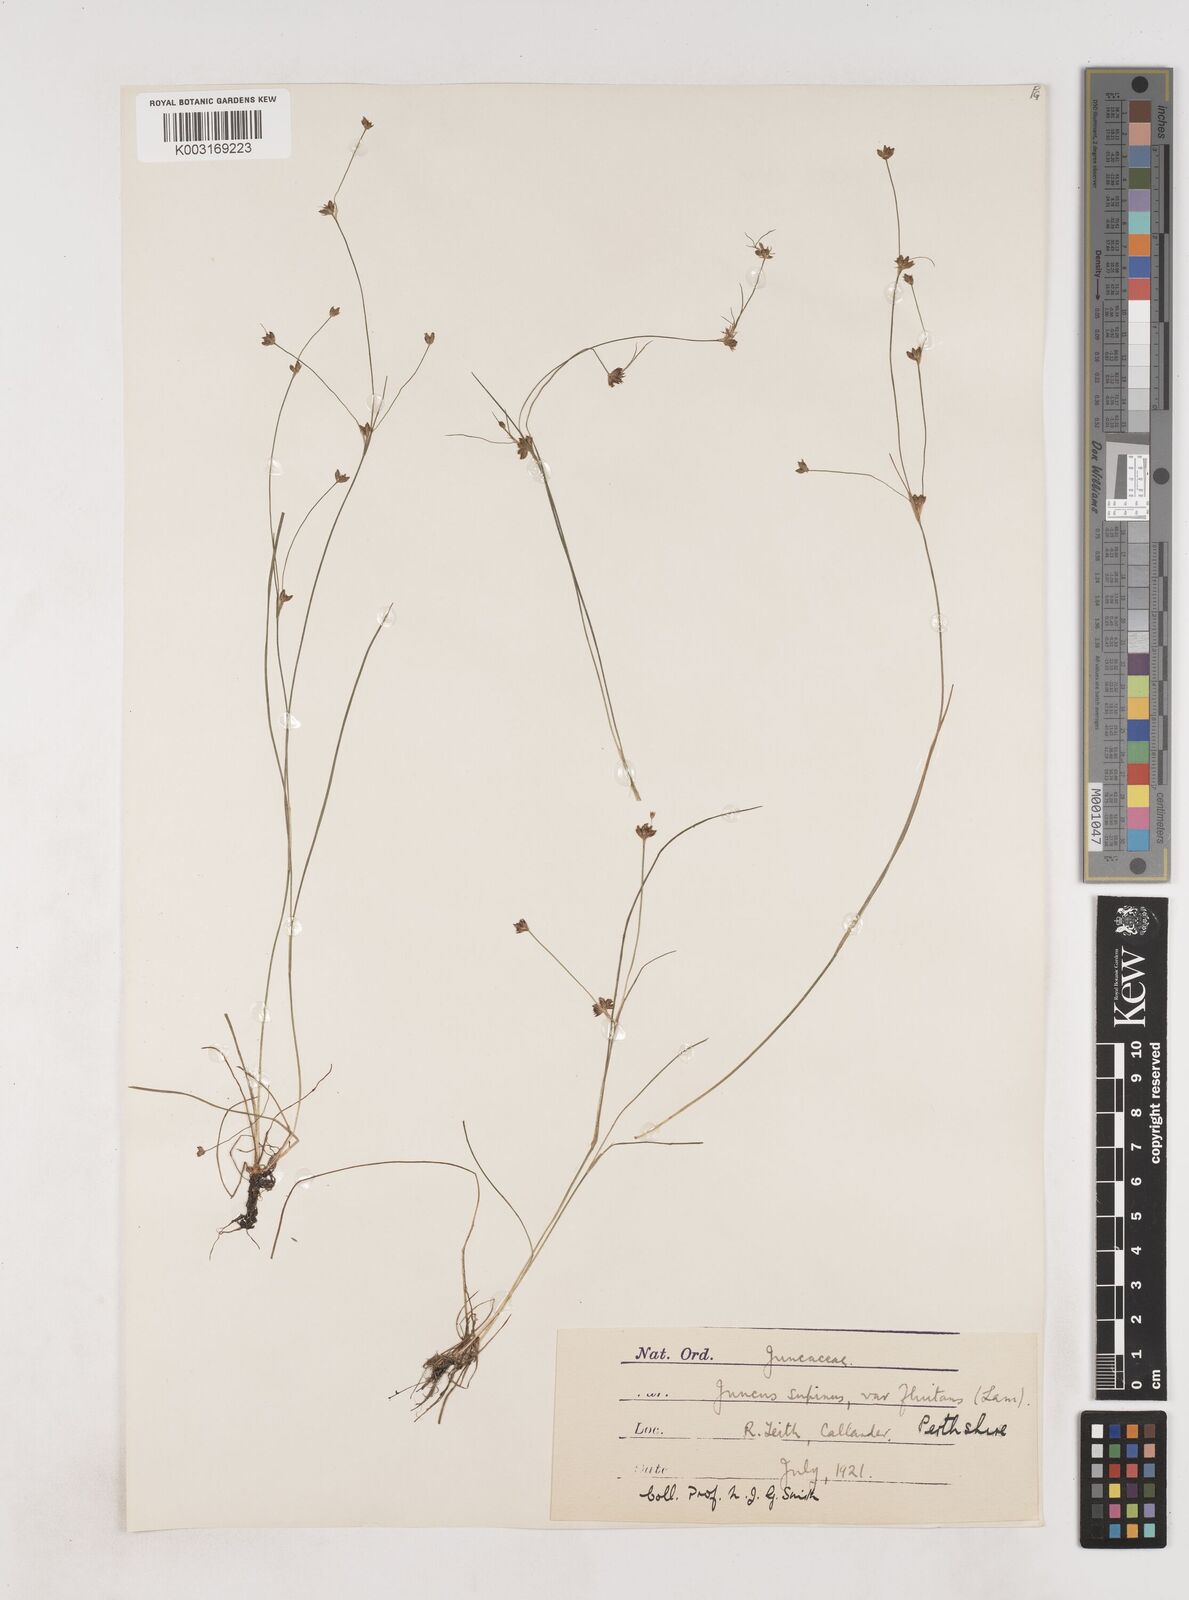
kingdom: Plantae
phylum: Tracheophyta
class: Liliopsida
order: Poales
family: Juncaceae
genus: Juncus
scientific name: Juncus bulbosus
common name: Bulbous rush
